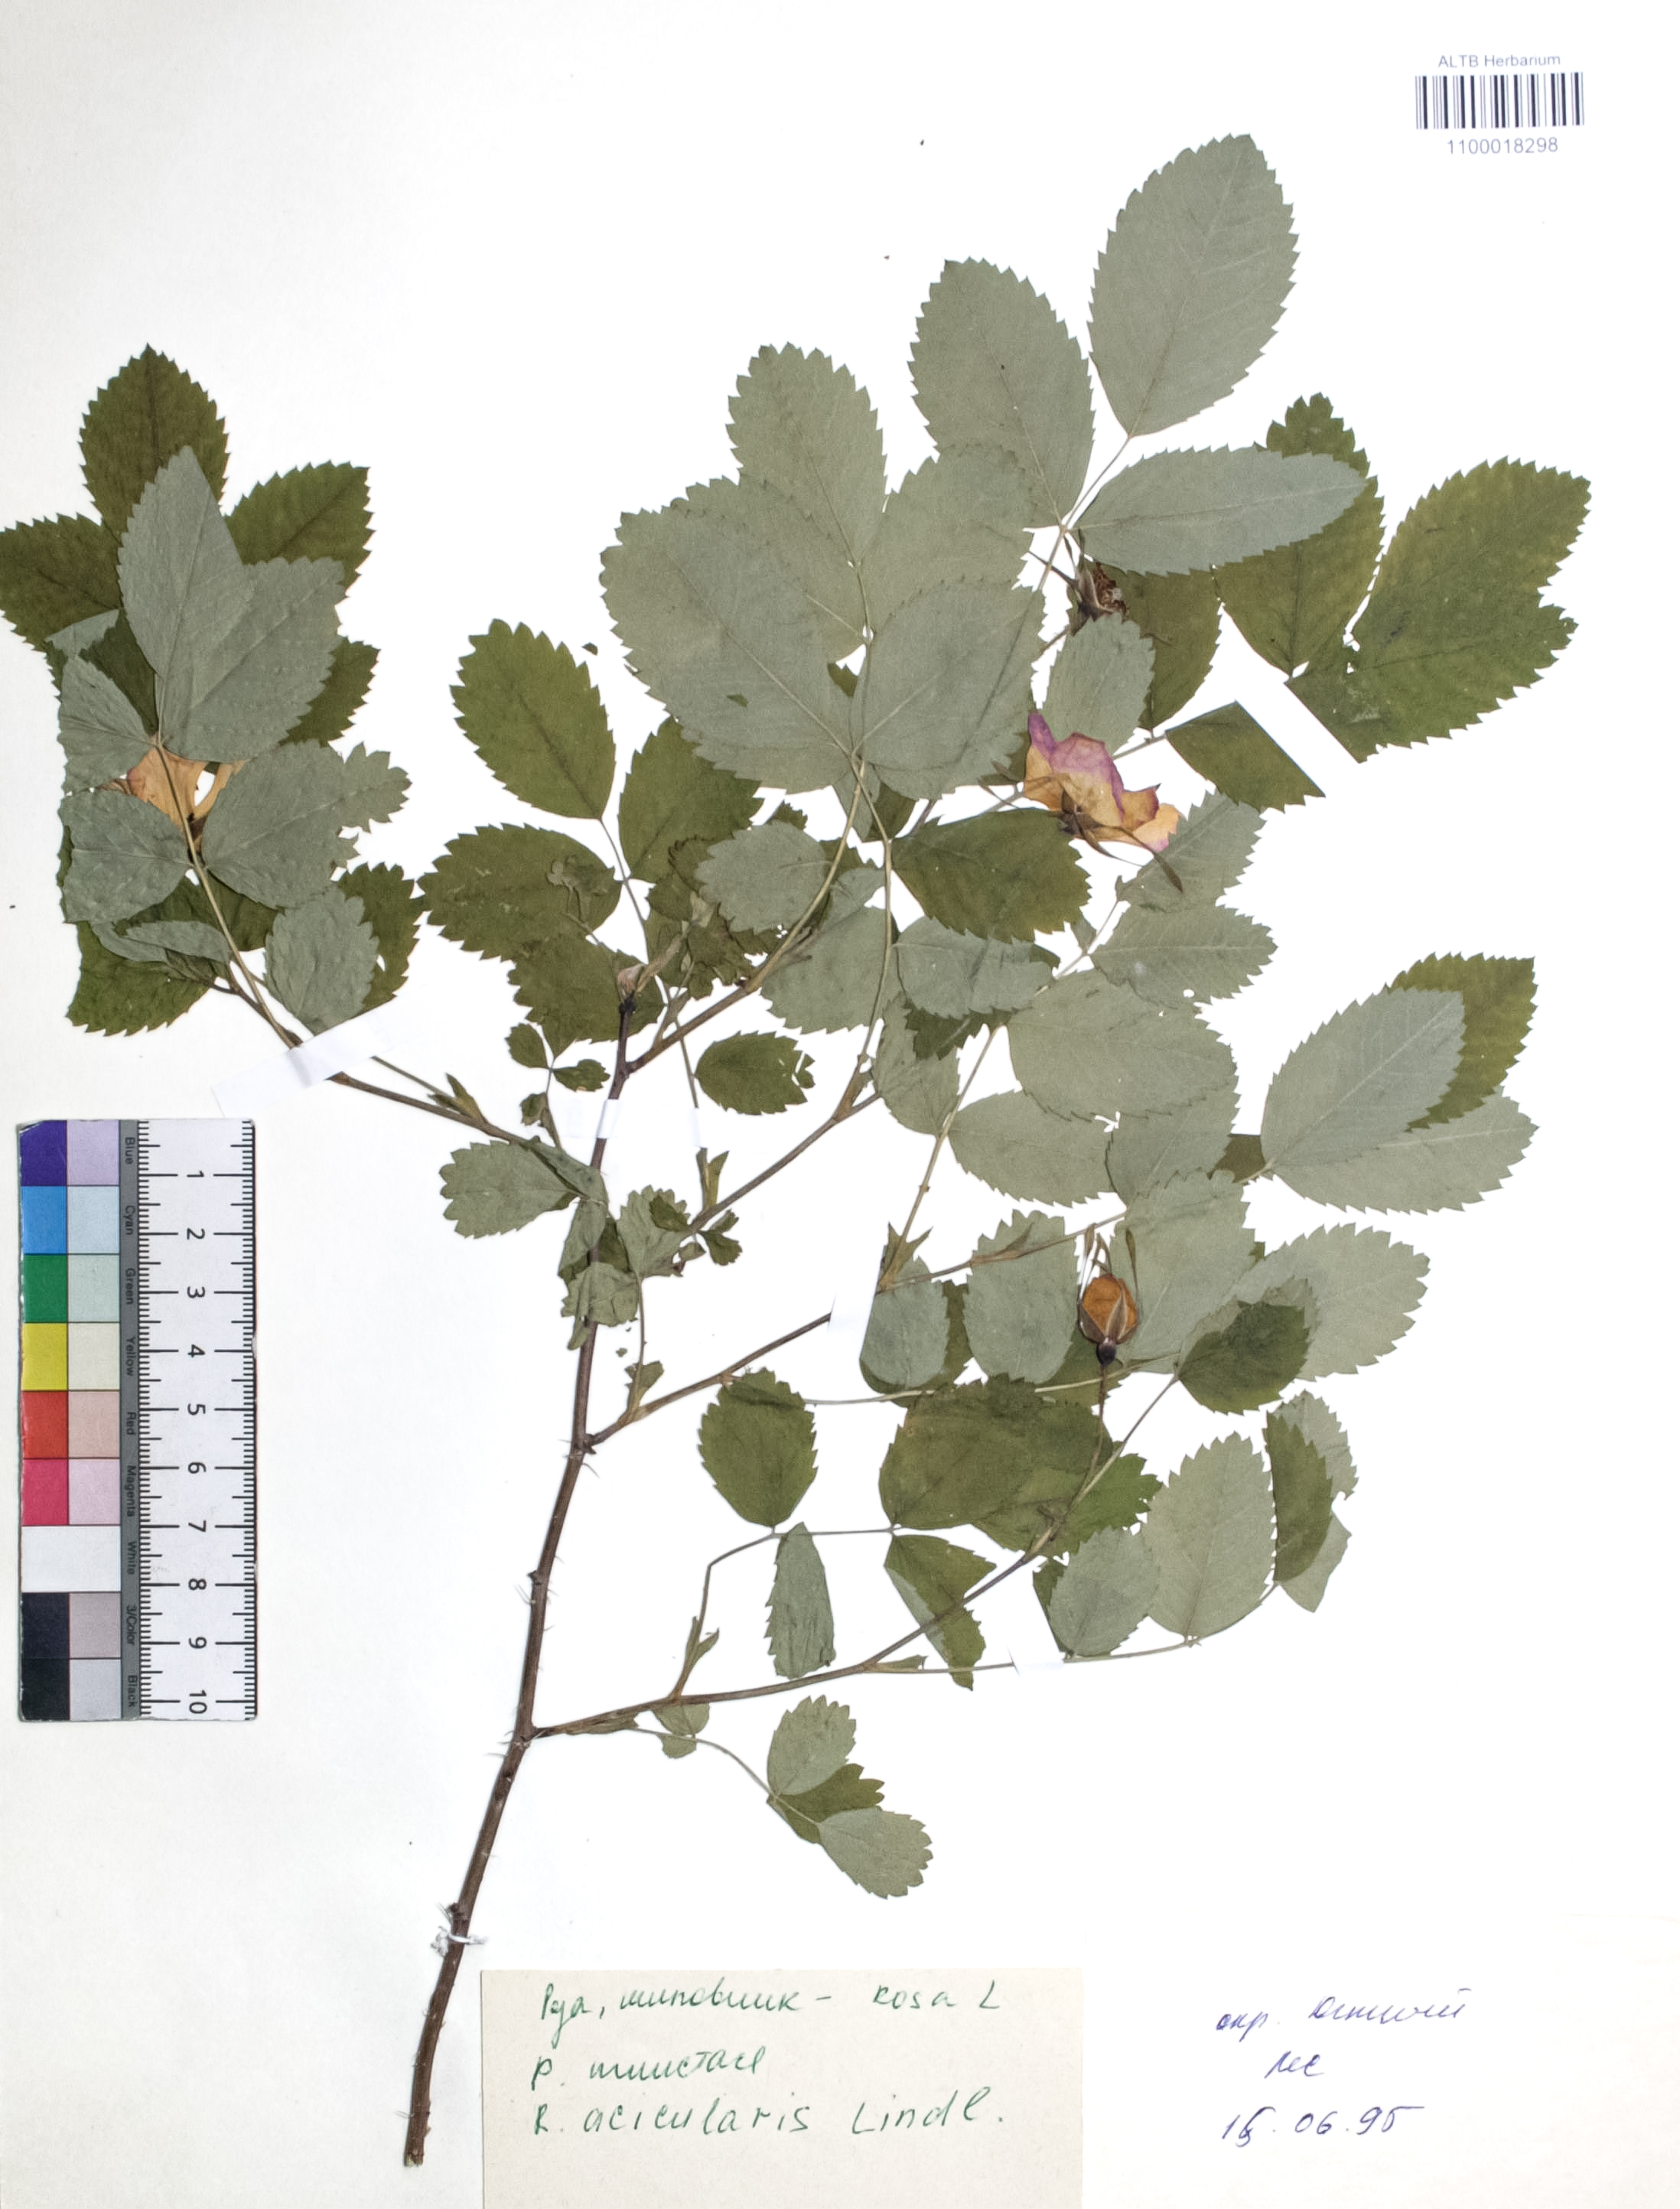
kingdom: Plantae
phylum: Tracheophyta
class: Magnoliopsida
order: Rosales
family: Rosaceae
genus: Rosa
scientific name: Rosa acicularis
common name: Prickly rose
